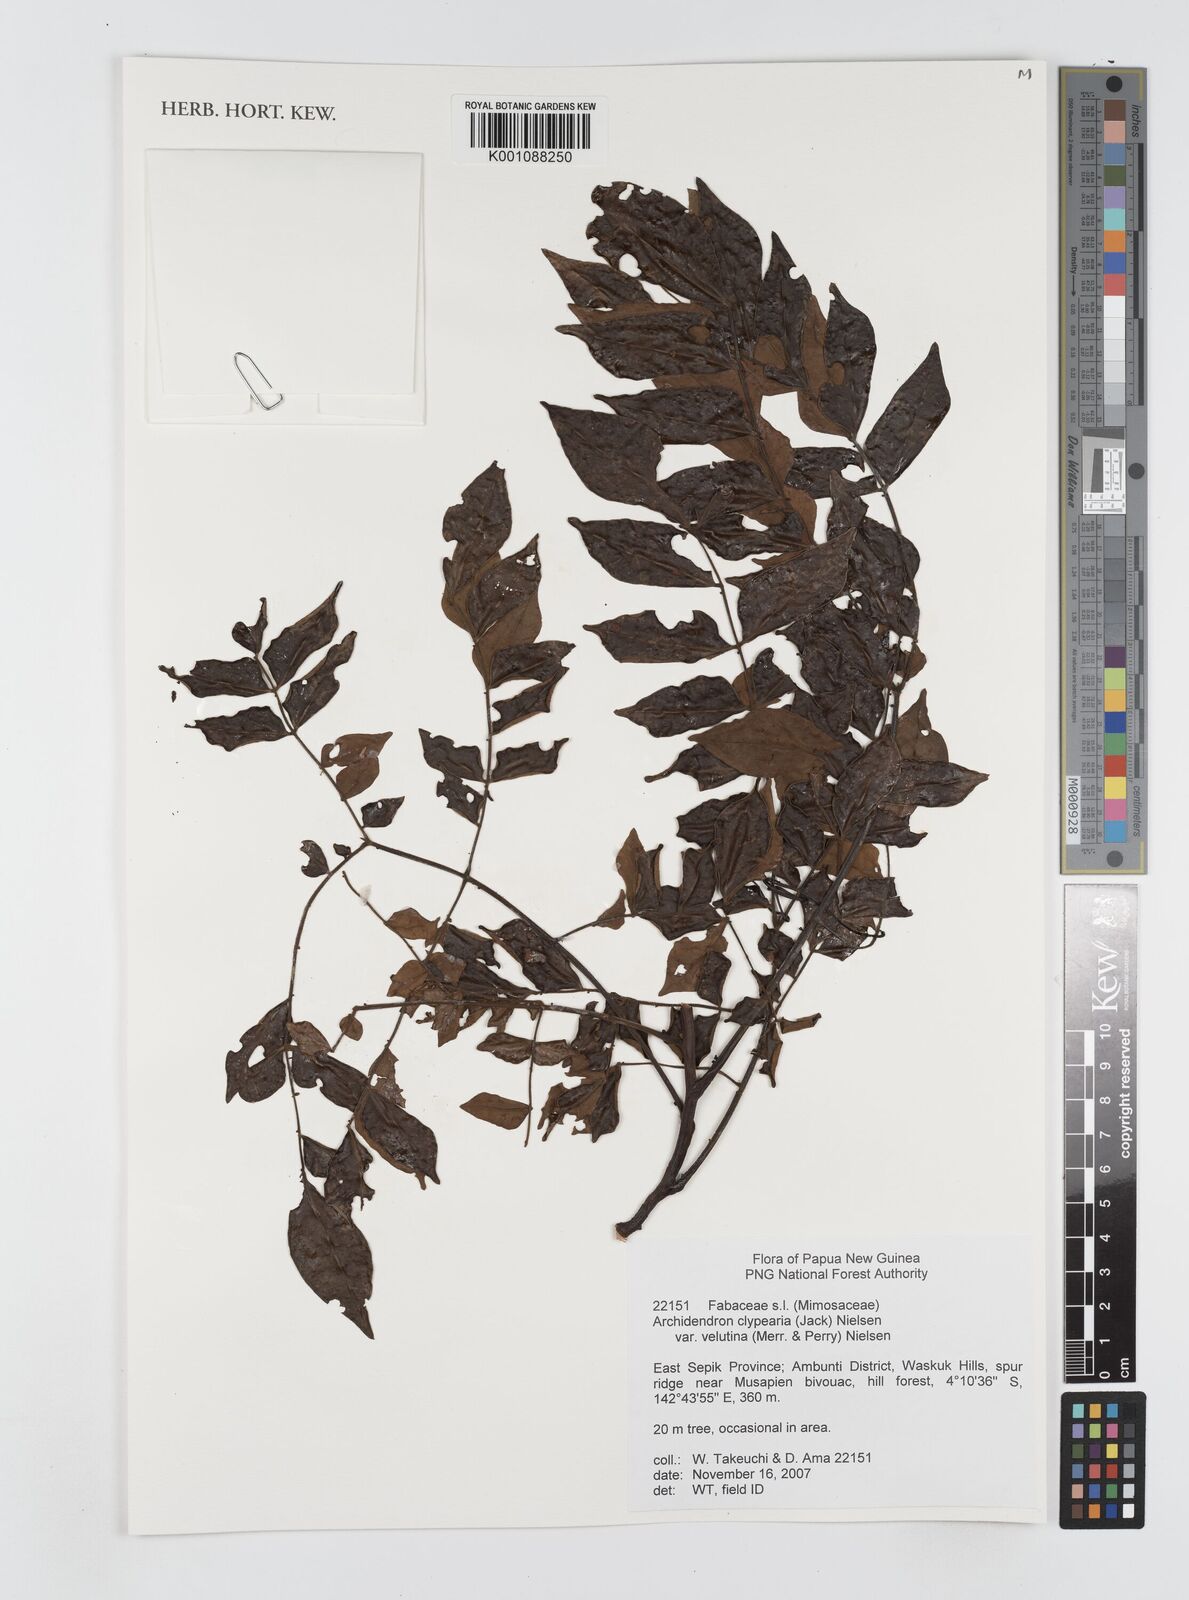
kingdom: Plantae
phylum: Tracheophyta
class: Magnoliopsida
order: Fabales
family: Fabaceae
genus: Archidendron
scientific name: Archidendron clypearia
